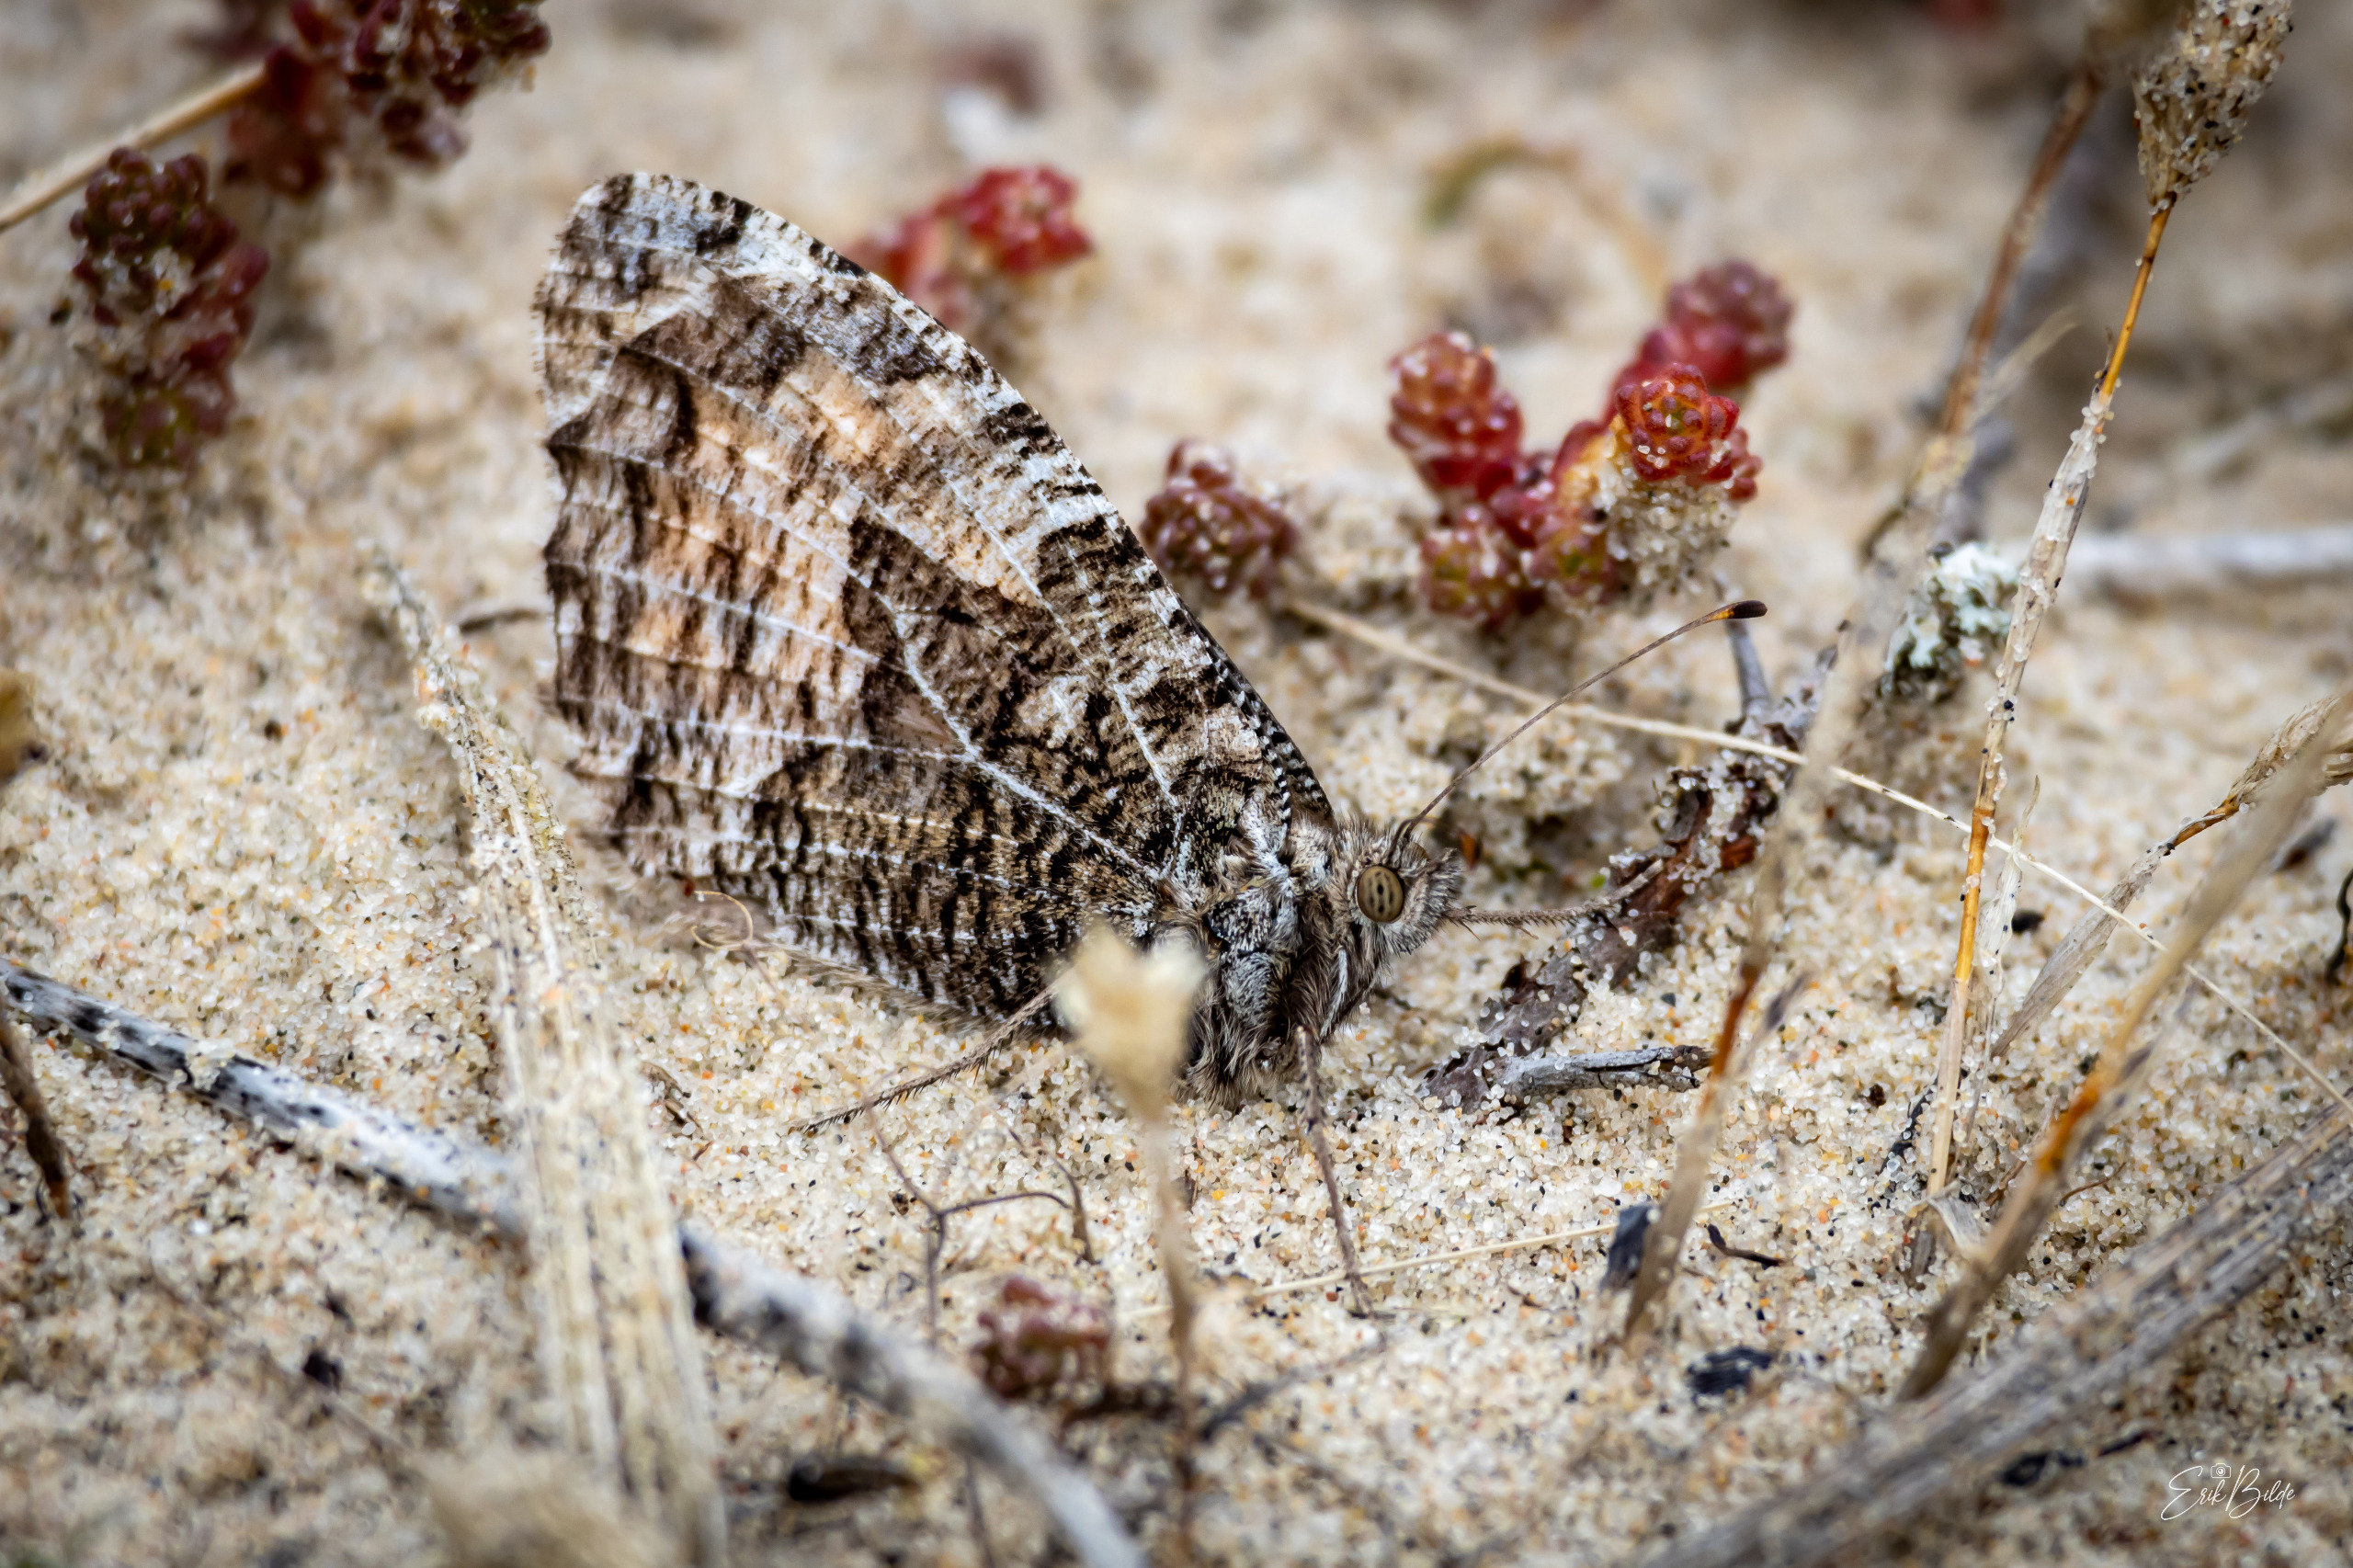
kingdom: Animalia
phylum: Arthropoda
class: Insecta
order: Lepidoptera
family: Nymphalidae
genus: Hipparchia
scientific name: Hipparchia semele
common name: Sandrandøje
